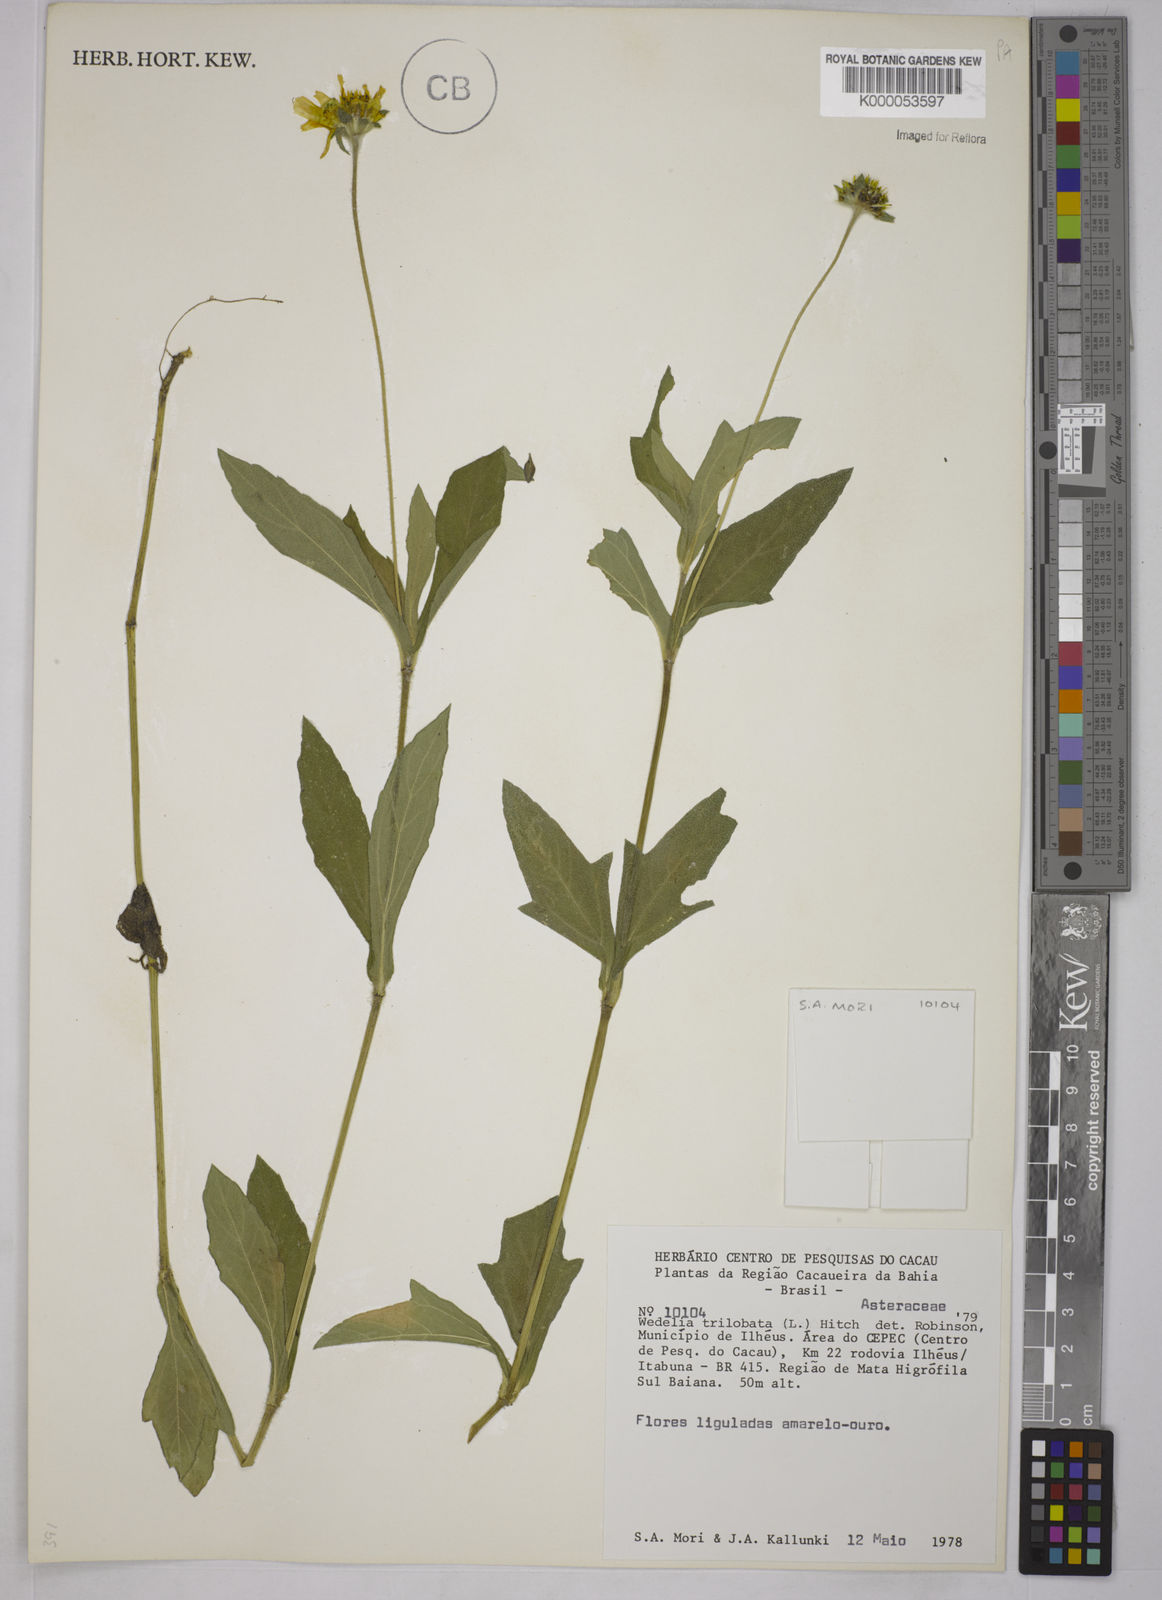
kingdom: Plantae
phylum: Tracheophyta
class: Magnoliopsida
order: Asterales
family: Asteraceae
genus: Sphagneticola
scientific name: Sphagneticola trilobata
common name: Bay biscayne creeping-oxeye
